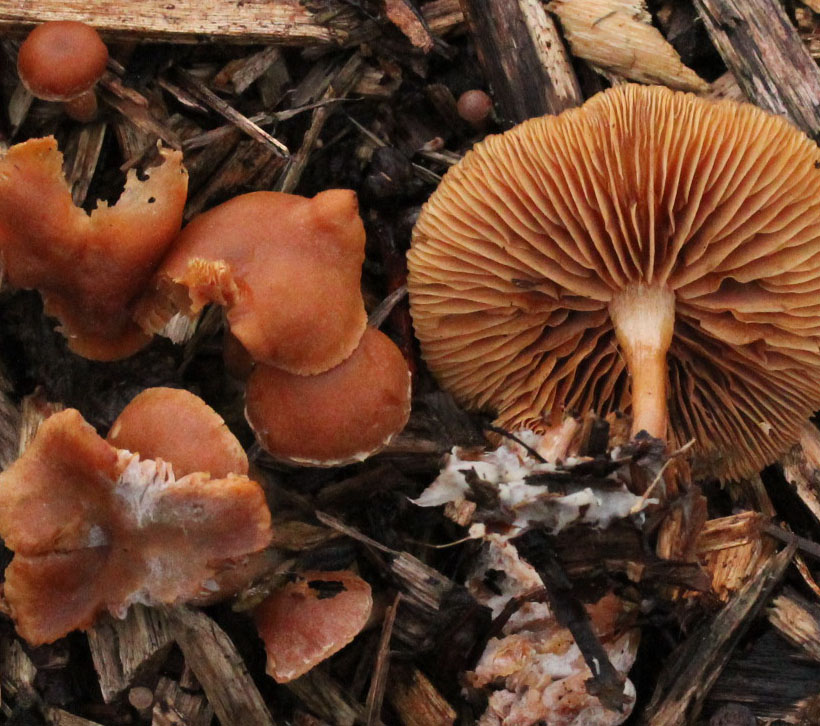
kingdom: Fungi
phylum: Basidiomycota
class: Agaricomycetes
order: Agaricales
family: Tubariaceae
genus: Tubaria
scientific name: Tubaria furfuracea
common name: kliddet fnughat
